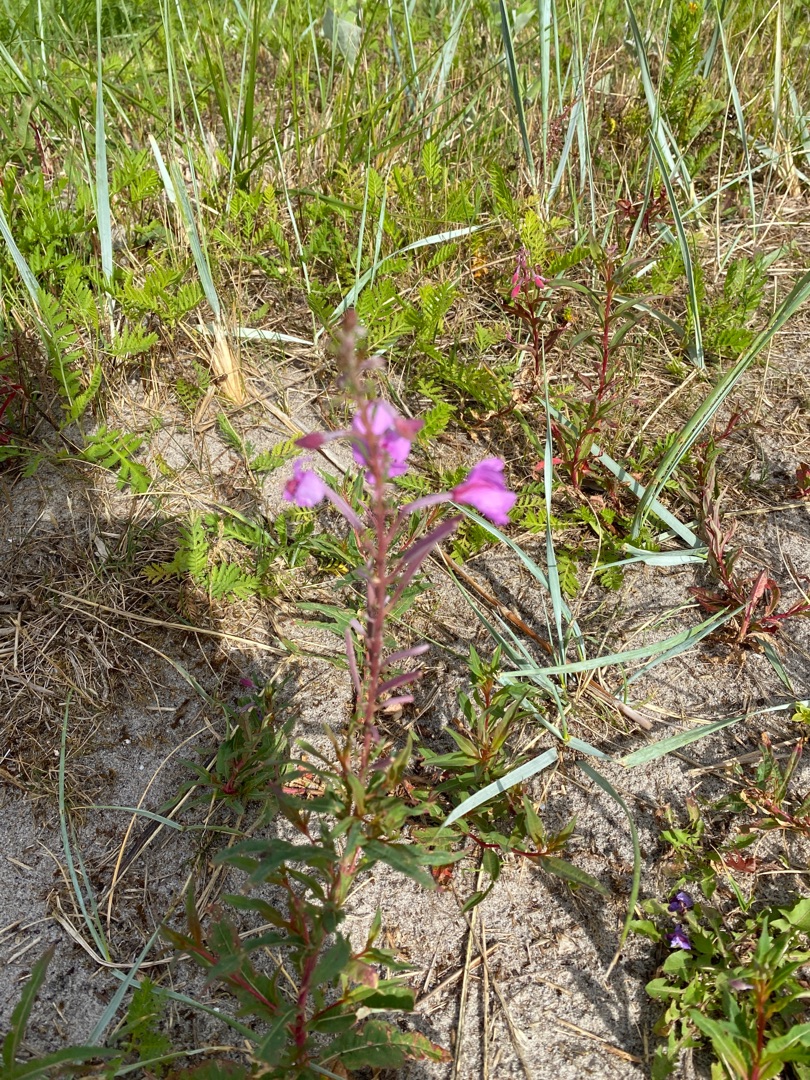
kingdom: Plantae
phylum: Tracheophyta
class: Magnoliopsida
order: Myrtales
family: Onagraceae
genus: Chamaenerion
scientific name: Chamaenerion angustifolium
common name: Gederams
